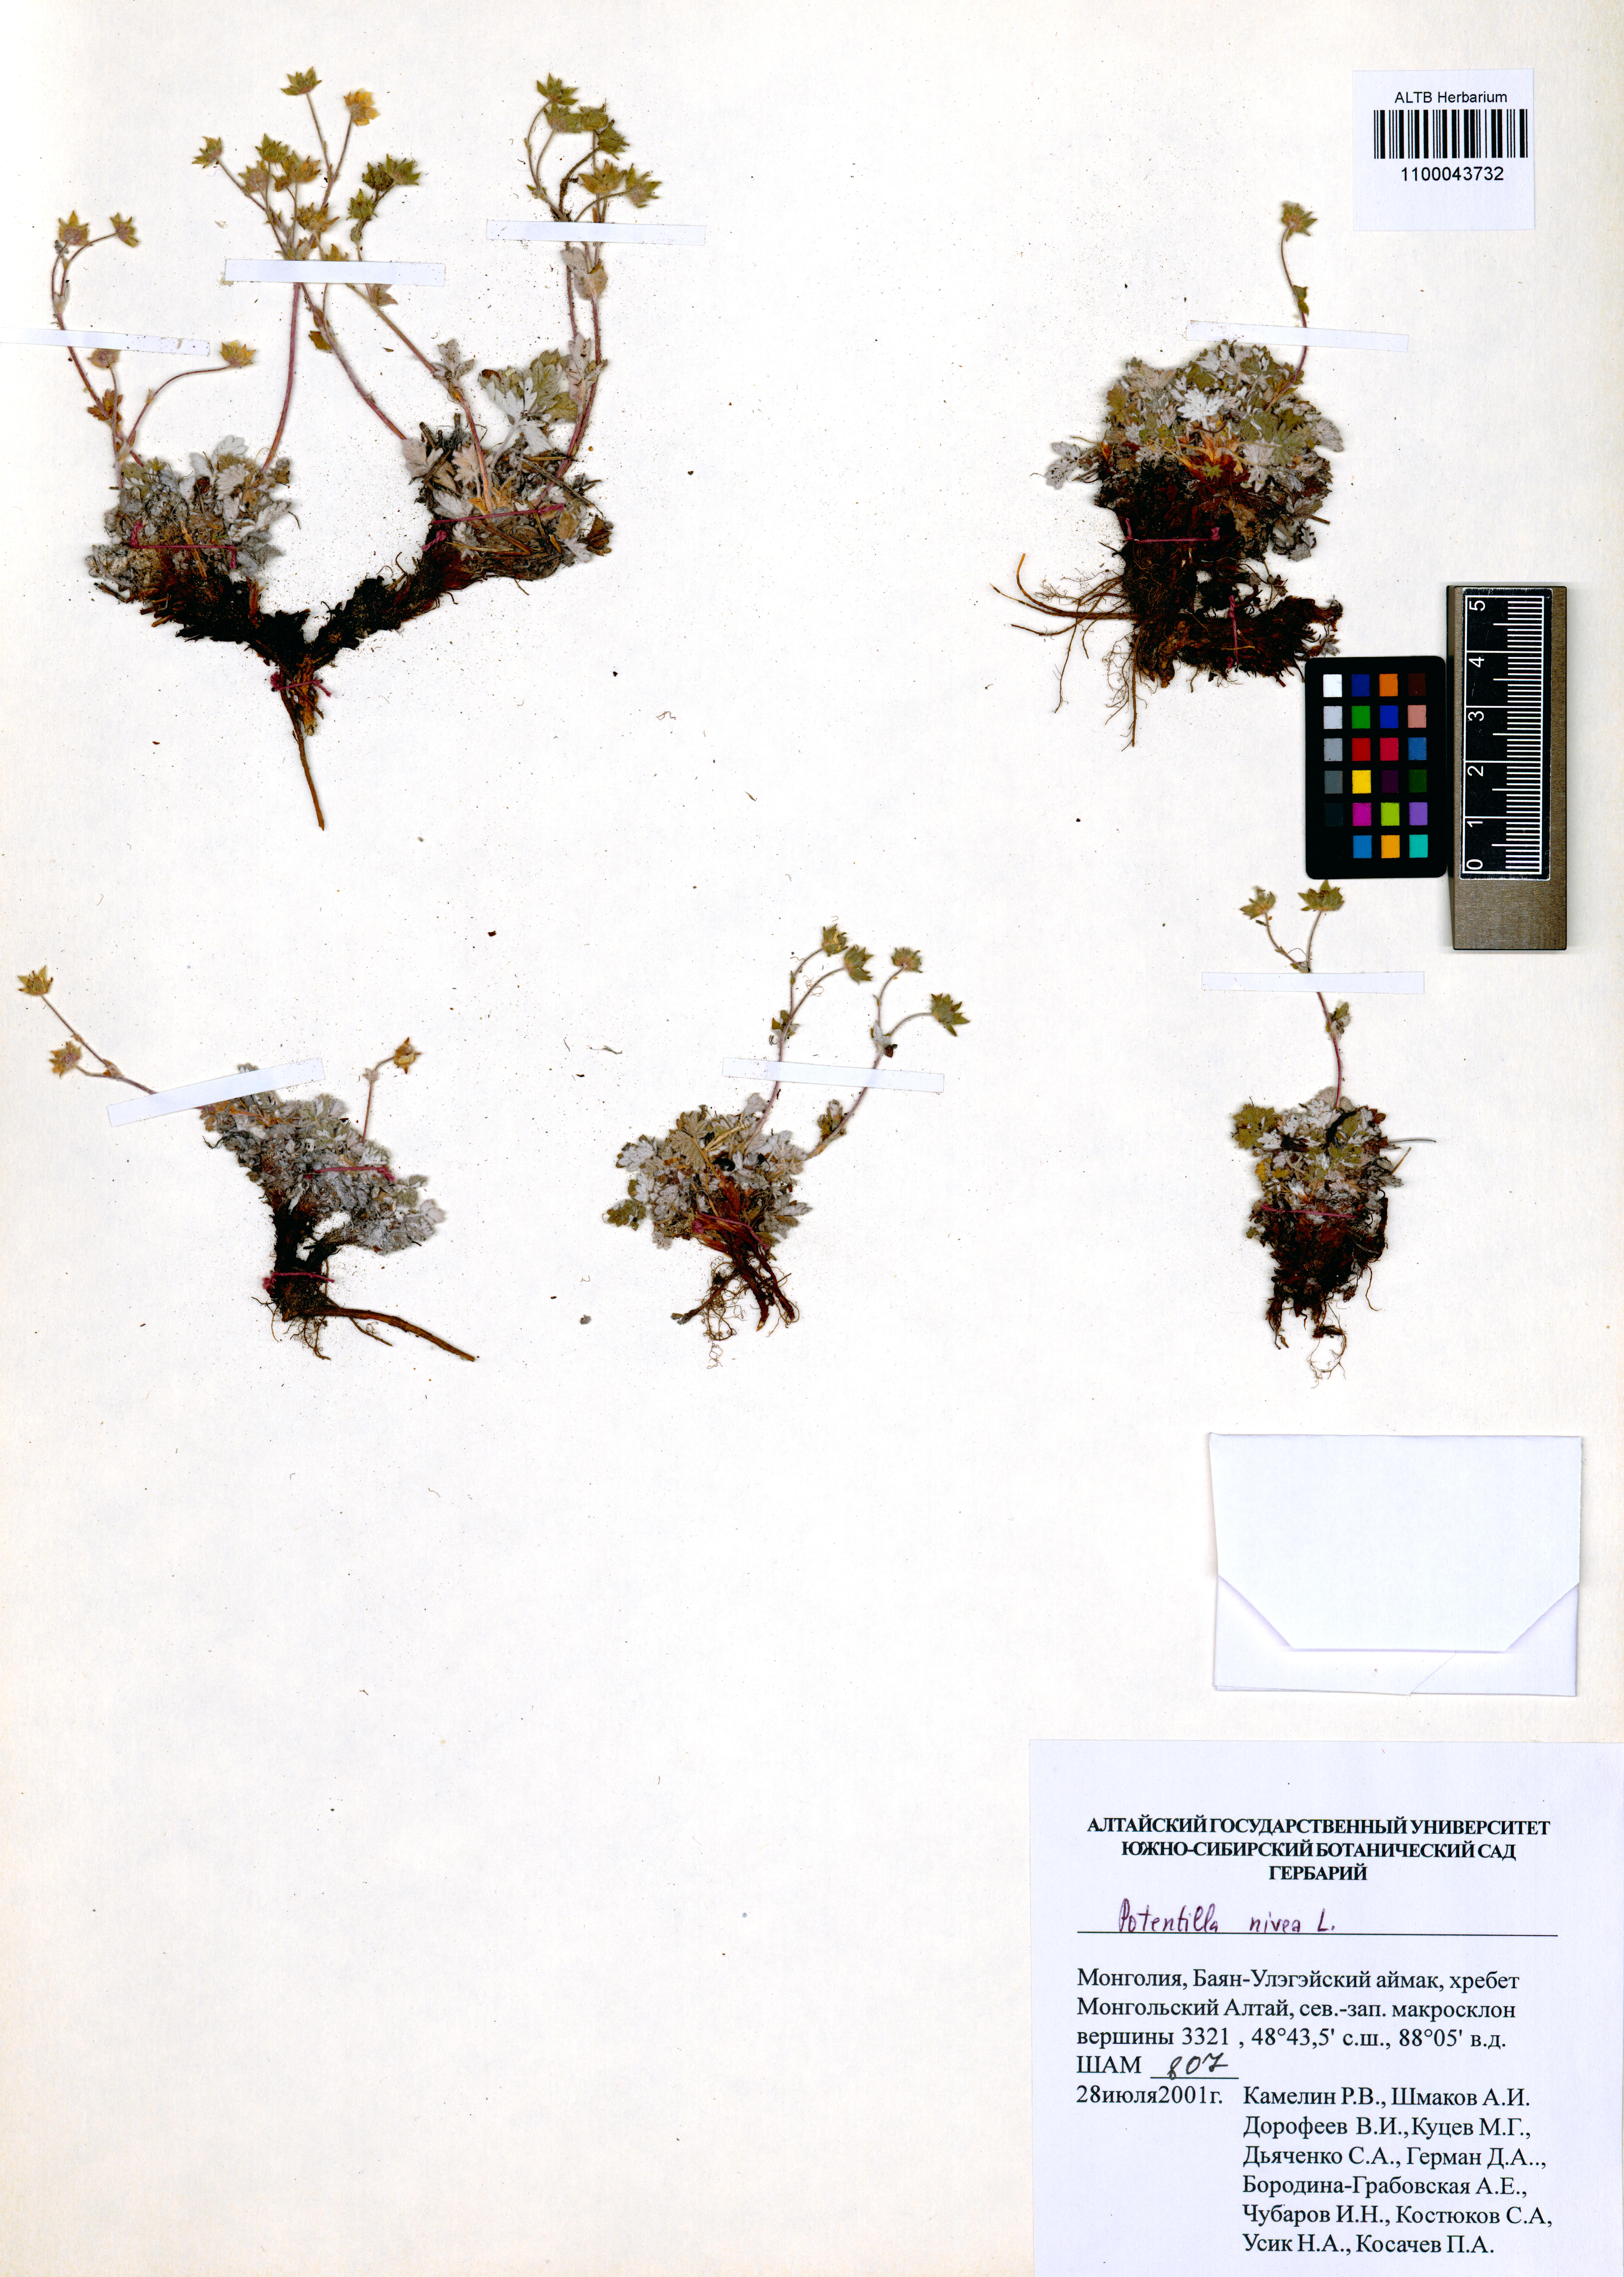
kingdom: Plantae
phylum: Tracheophyta
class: Magnoliopsida
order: Rosales
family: Rosaceae
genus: Potentilla
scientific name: Potentilla nivea
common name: Snow cinquefoil
